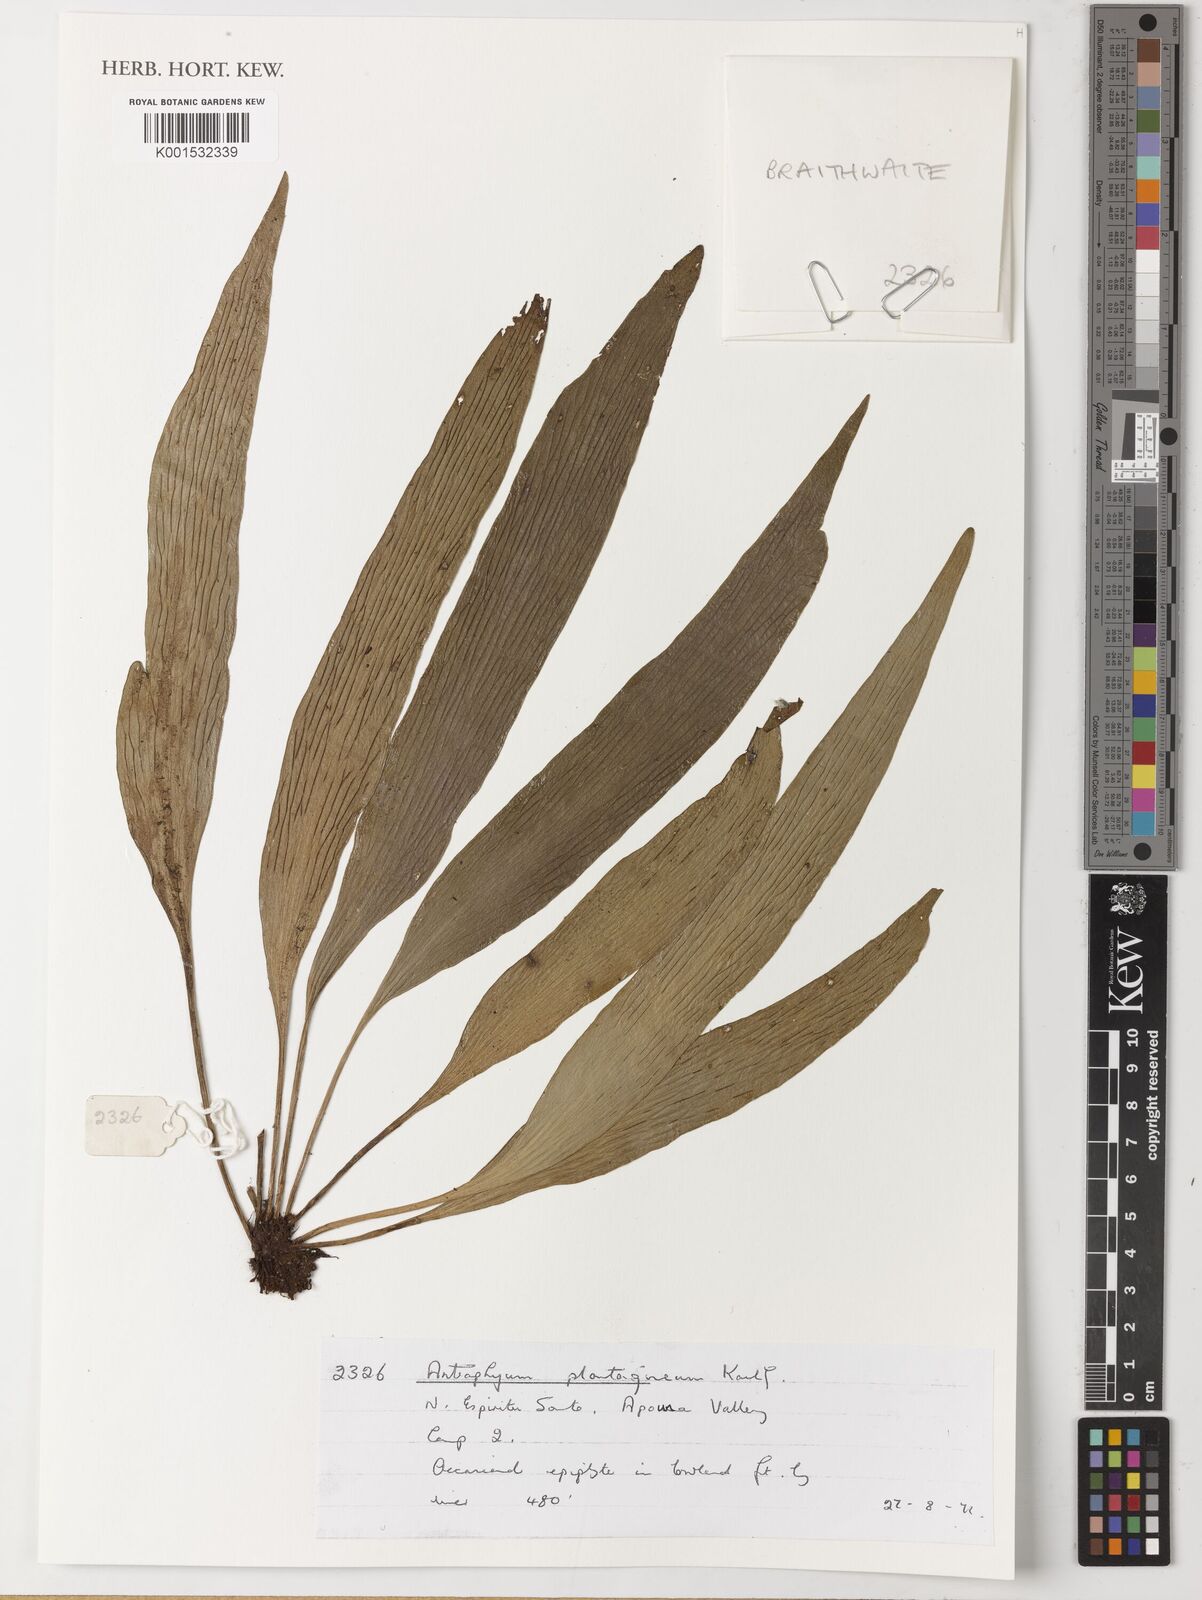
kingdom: Plantae
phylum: Tracheophyta
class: Polypodiopsida
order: Polypodiales
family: Pteridaceae
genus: Antrophyum
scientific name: Antrophyum plantagineum
